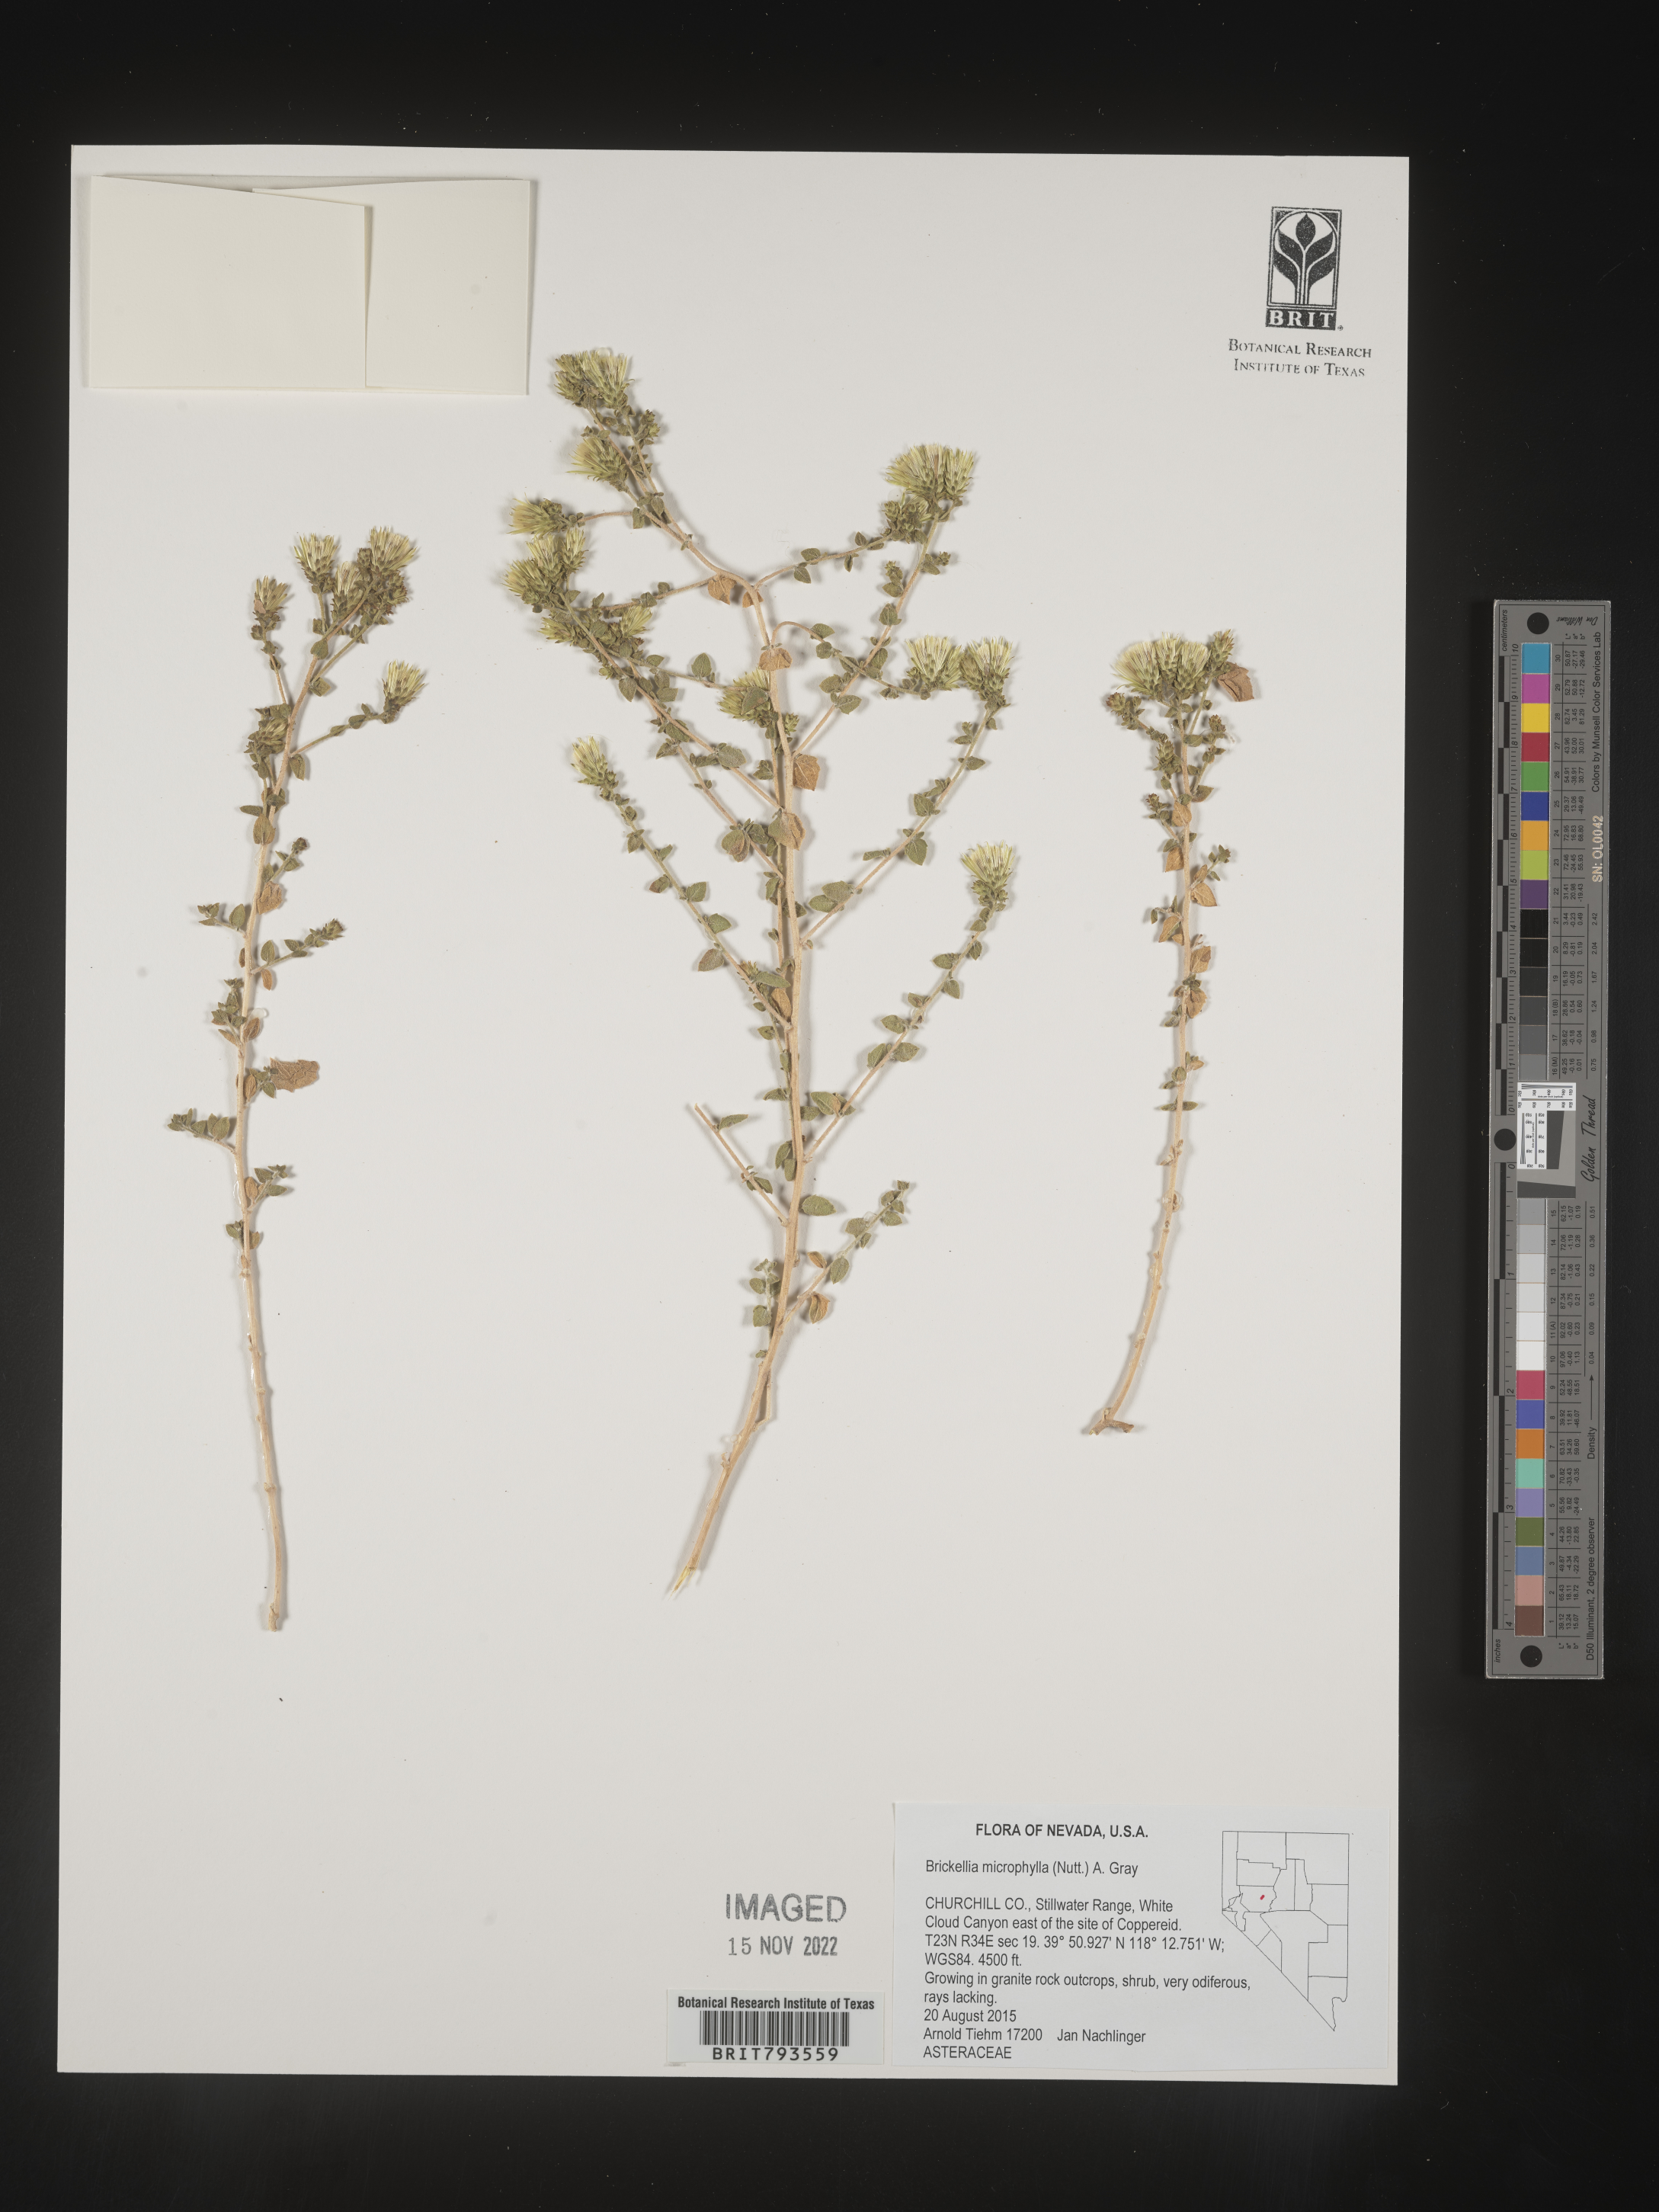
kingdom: Plantae
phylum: Tracheophyta
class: Magnoliopsida
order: Asterales
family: Asteraceae
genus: Brickellia
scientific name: Brickellia microphylla
